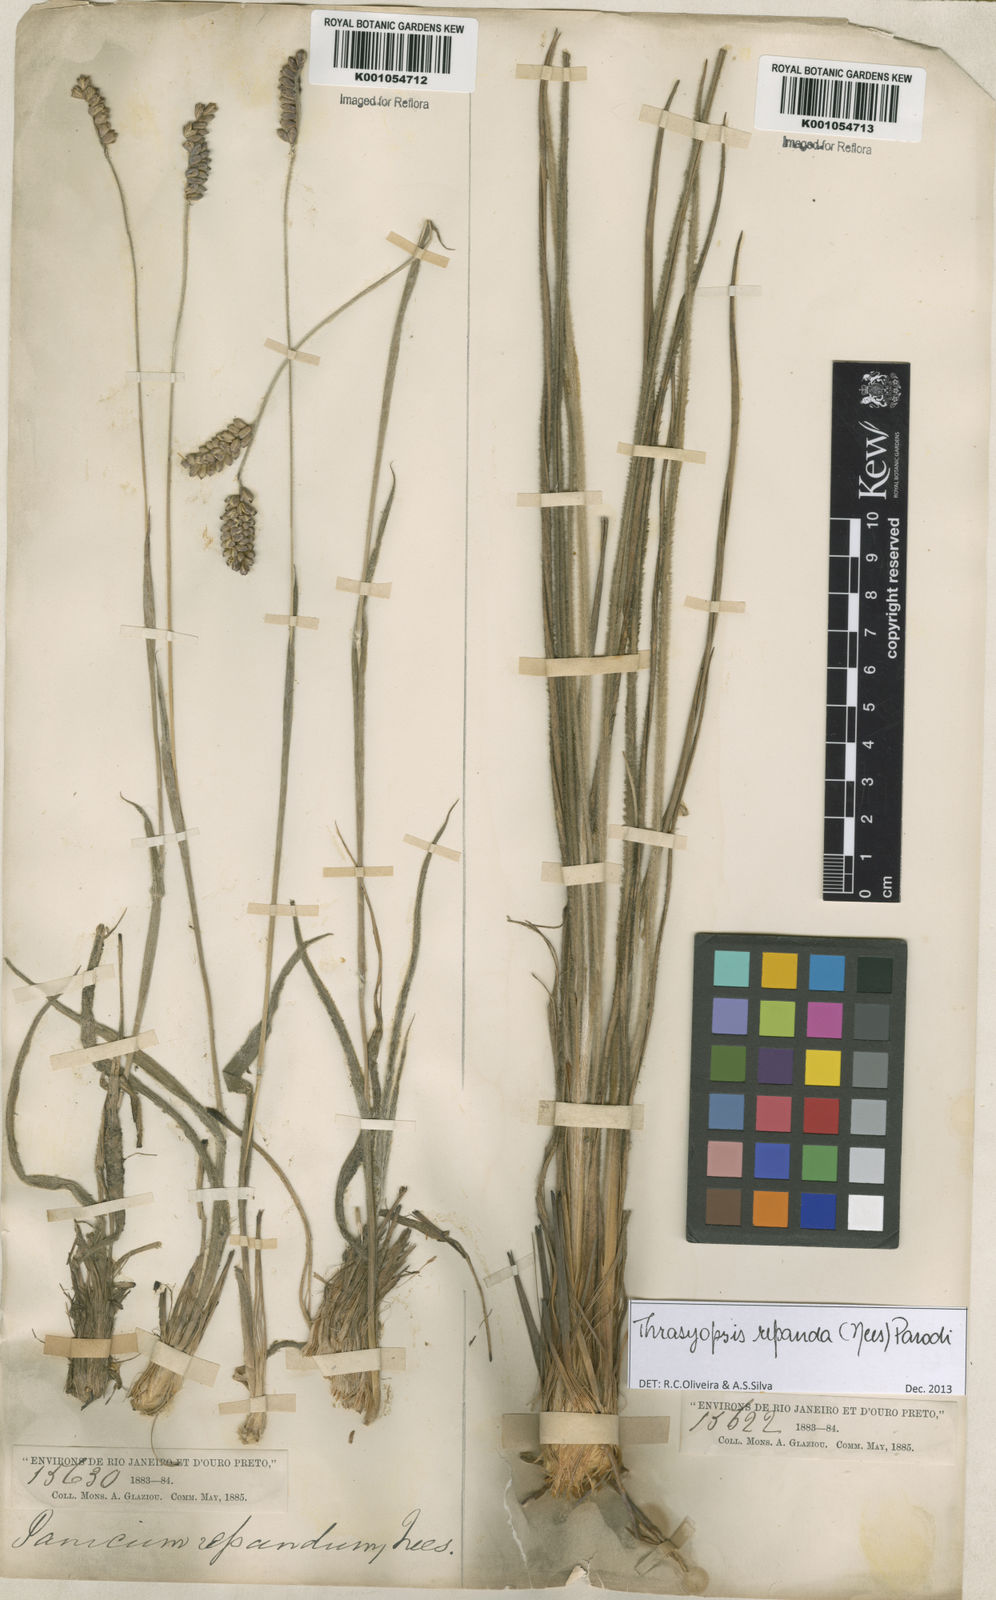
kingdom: Plantae
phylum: Tracheophyta
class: Liliopsida
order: Poales
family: Poaceae
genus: Paspalum
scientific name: Paspalum repandum
